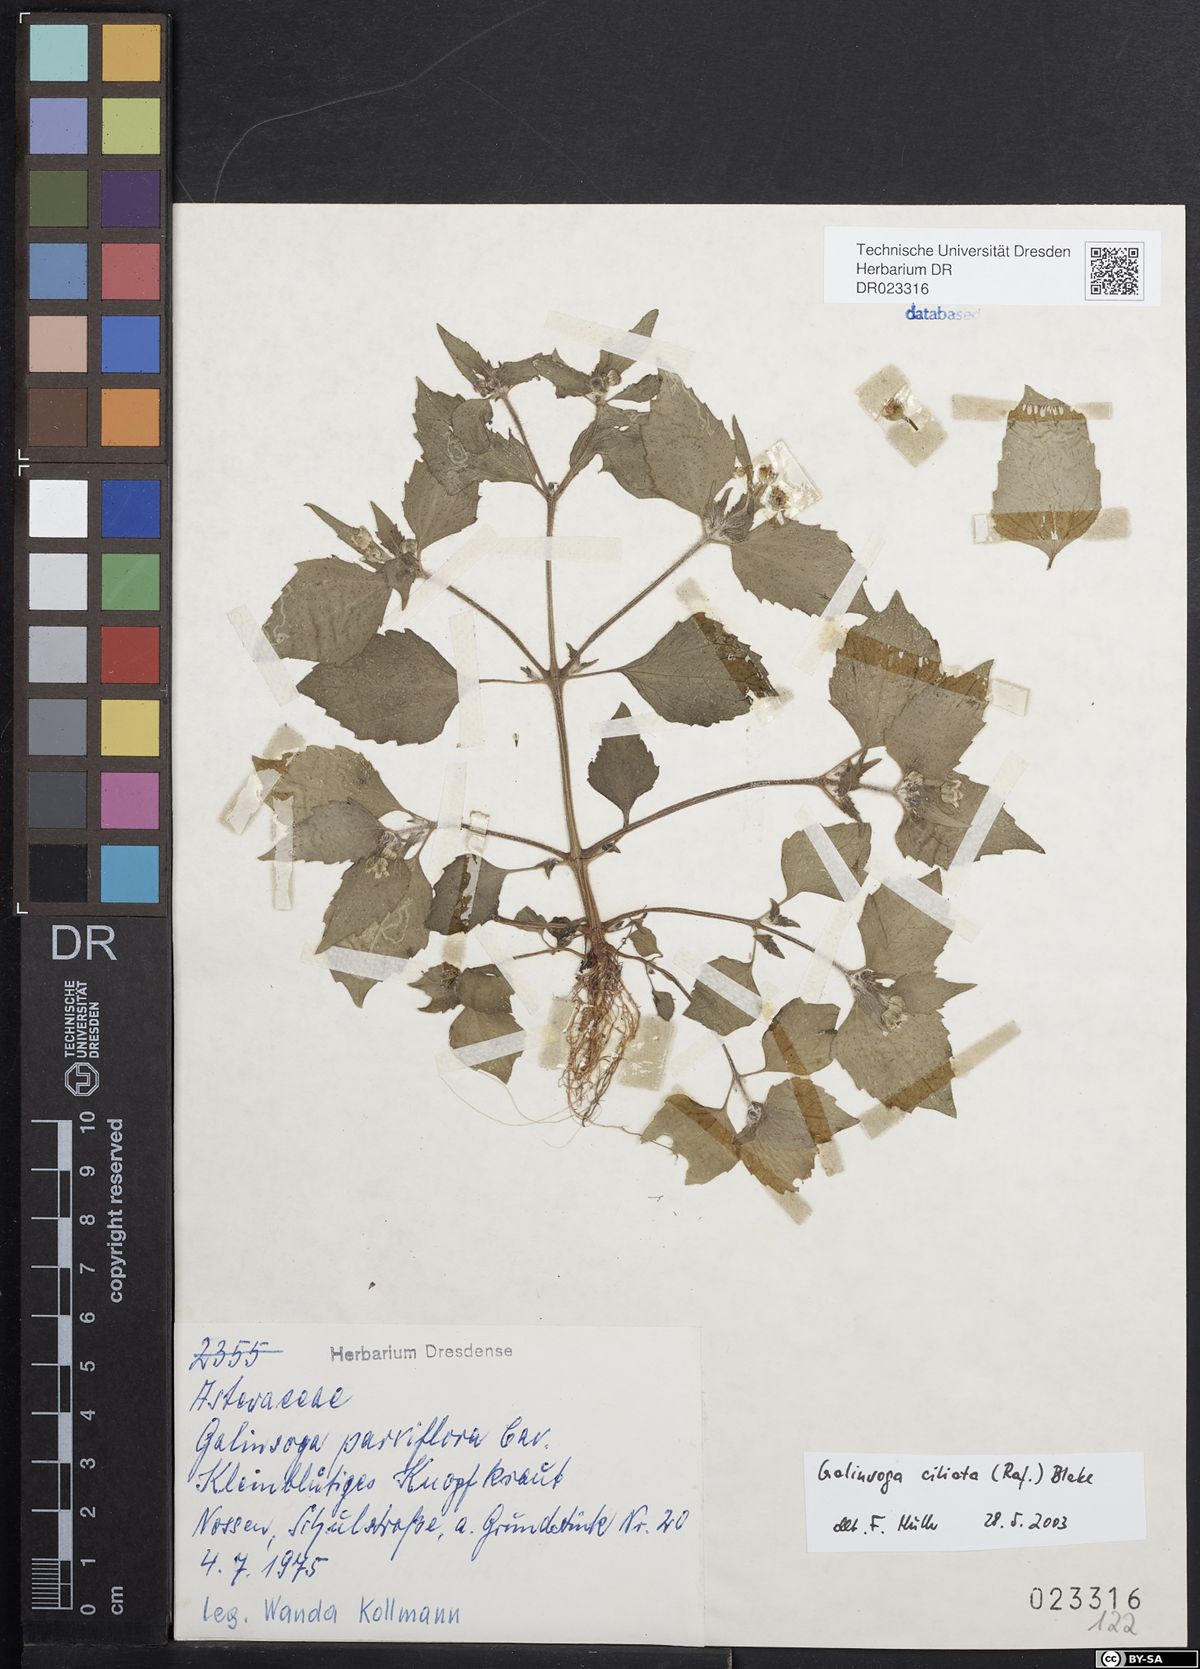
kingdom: Plantae
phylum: Tracheophyta
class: Magnoliopsida
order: Asterales
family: Asteraceae
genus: Galinsoga
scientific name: Galinsoga quadriradiata
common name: Shaggy soldier
